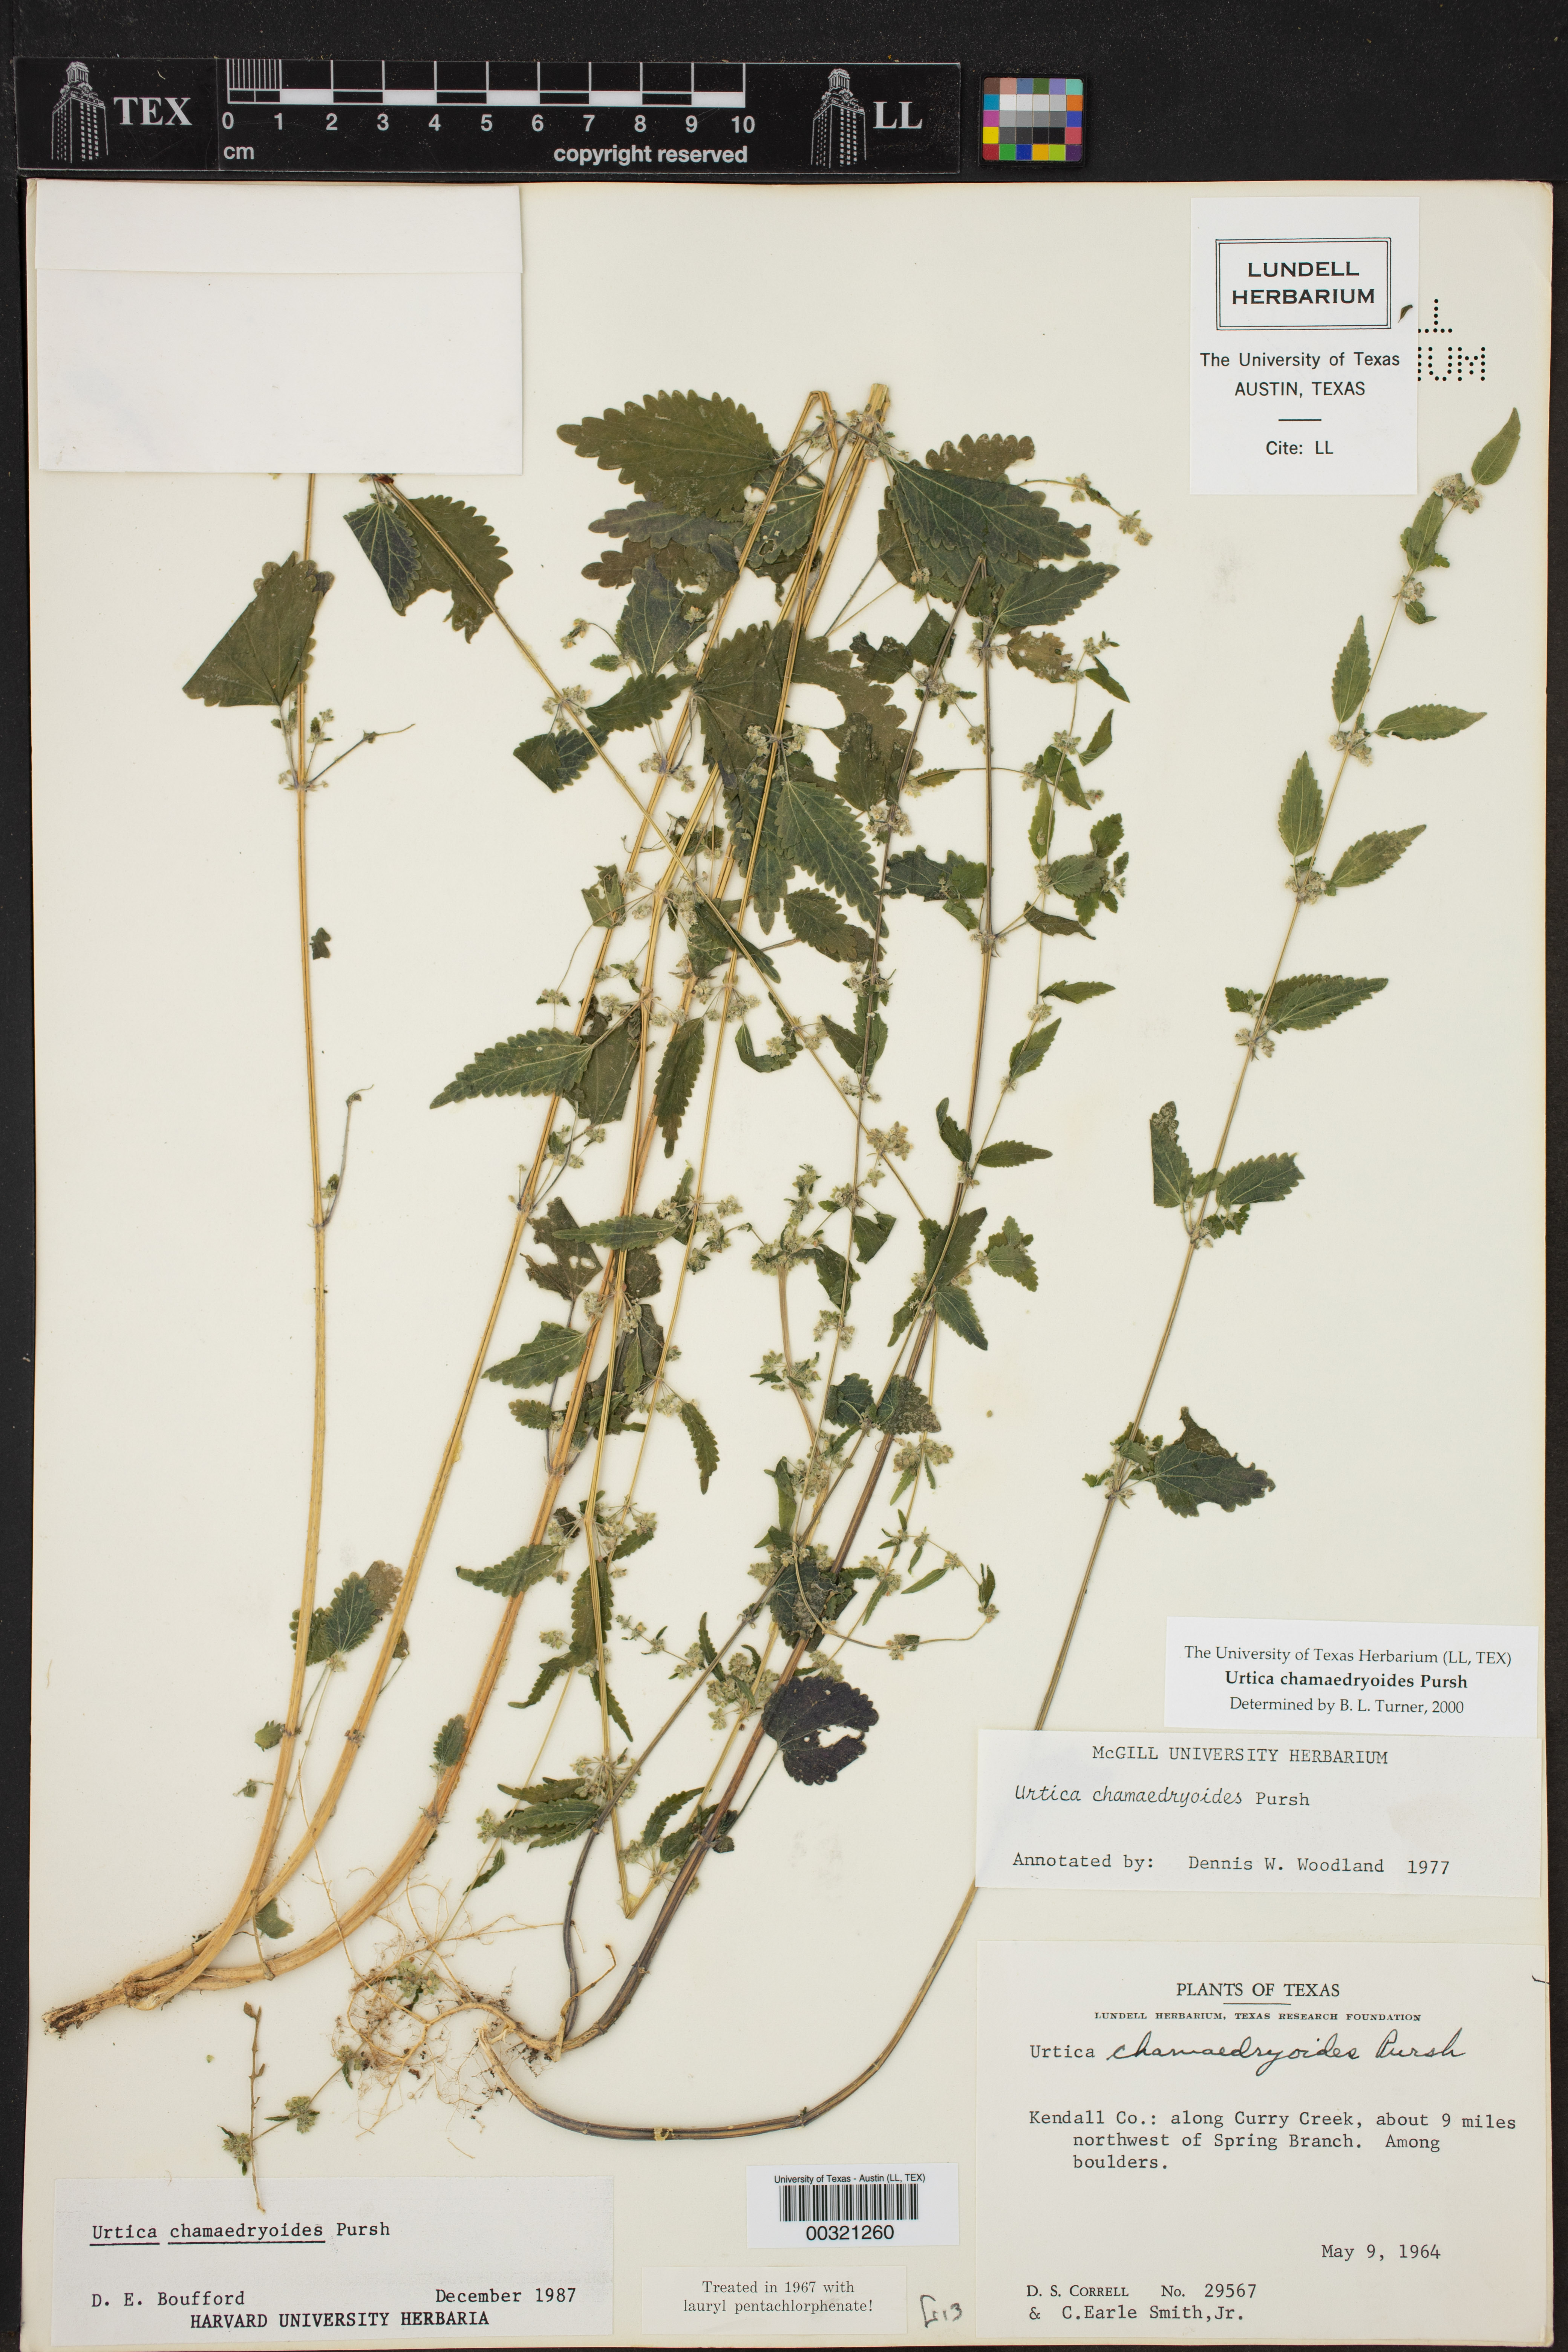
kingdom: Plantae
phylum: Tracheophyta
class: Magnoliopsida
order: Rosales
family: Urticaceae
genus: Urtica
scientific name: Urtica chamaedryoides
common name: Heart-leaf nettle
